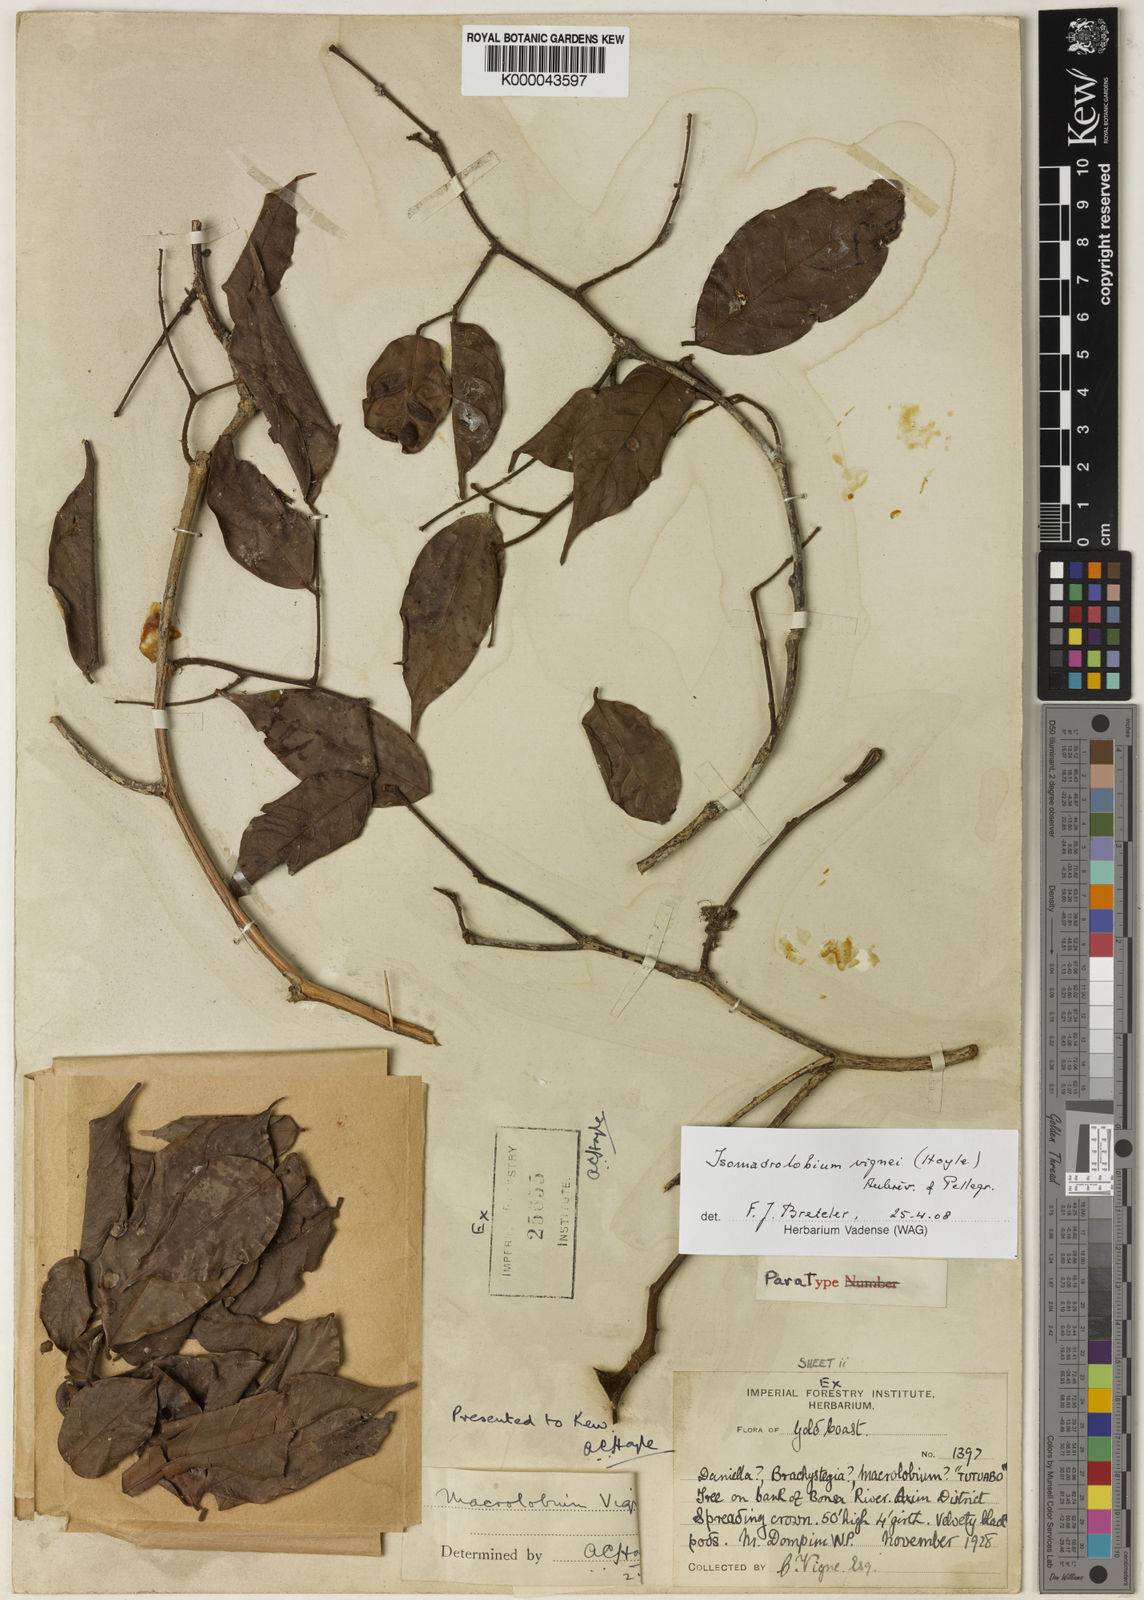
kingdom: Plantae
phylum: Tracheophyta
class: Magnoliopsida
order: Fabales
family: Fabaceae
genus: Englerodendron
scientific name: Englerodendron vignei
